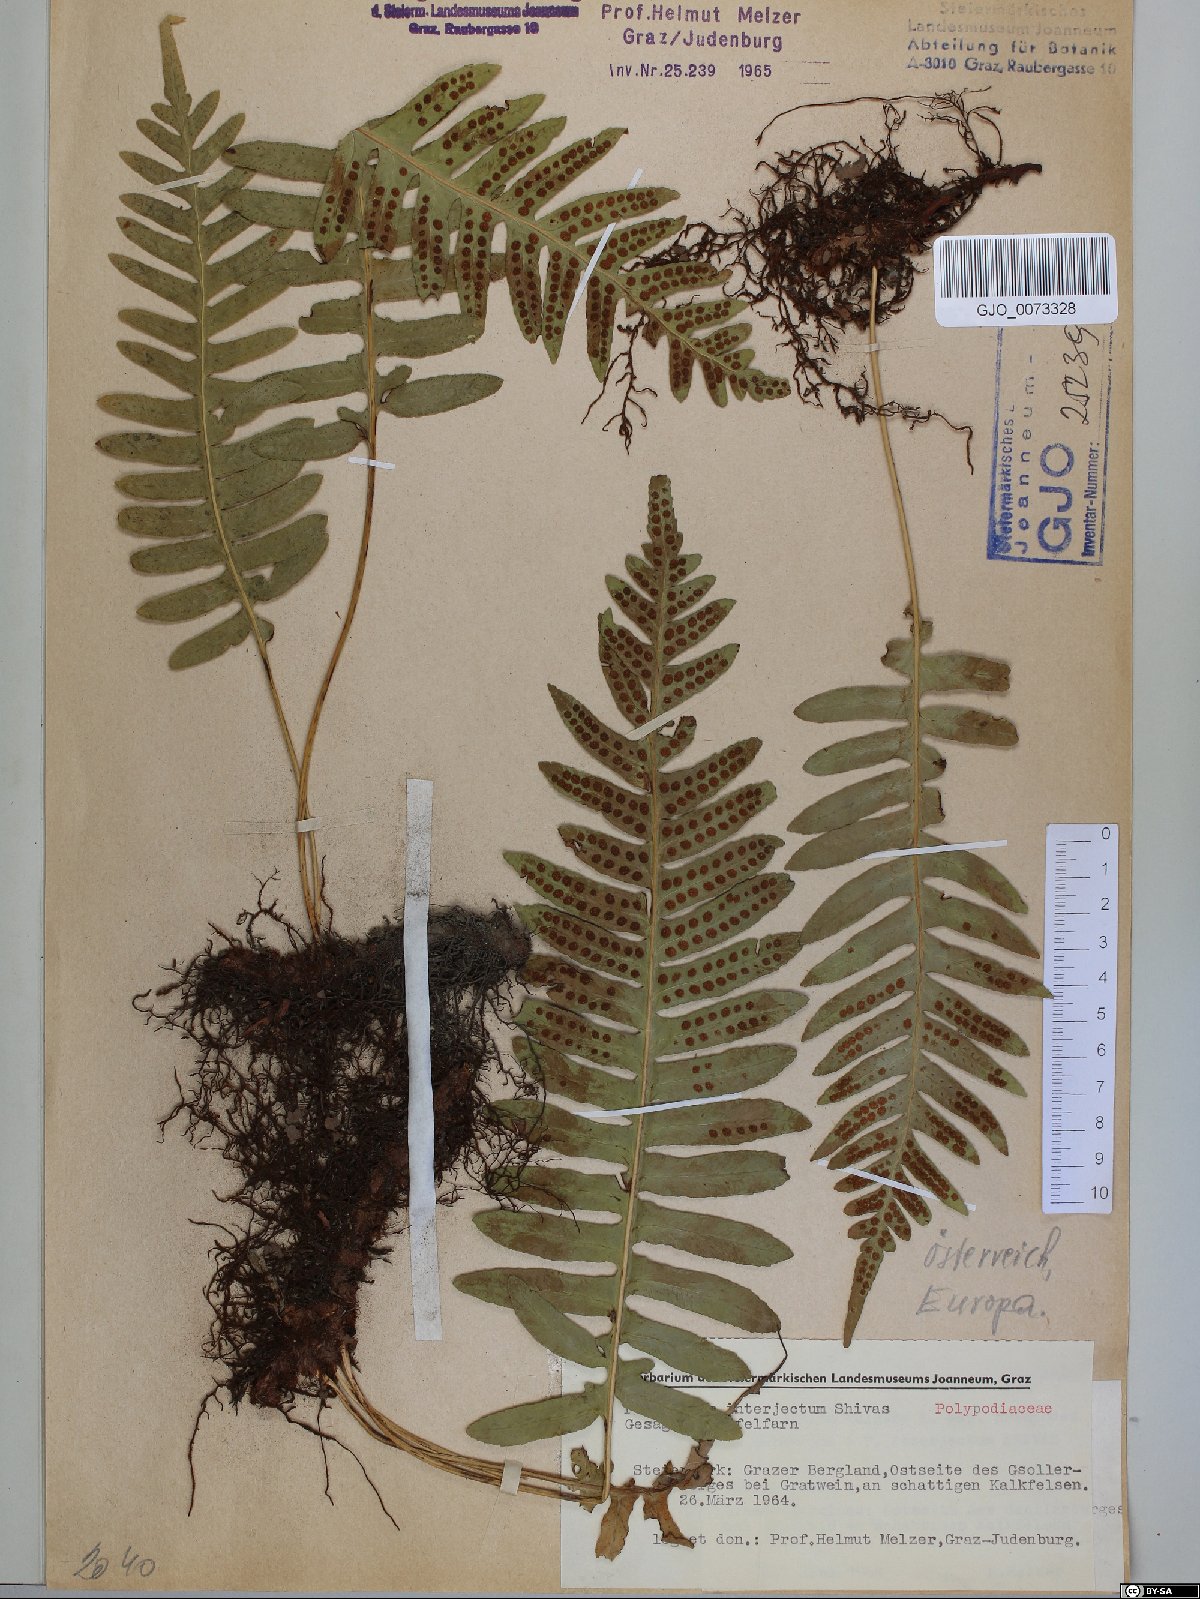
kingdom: Plantae
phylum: Tracheophyta
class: Polypodiopsida
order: Polypodiales
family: Polypodiaceae
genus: Polypodium
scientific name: Polypodium interjectum
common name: Intermediate polypody
